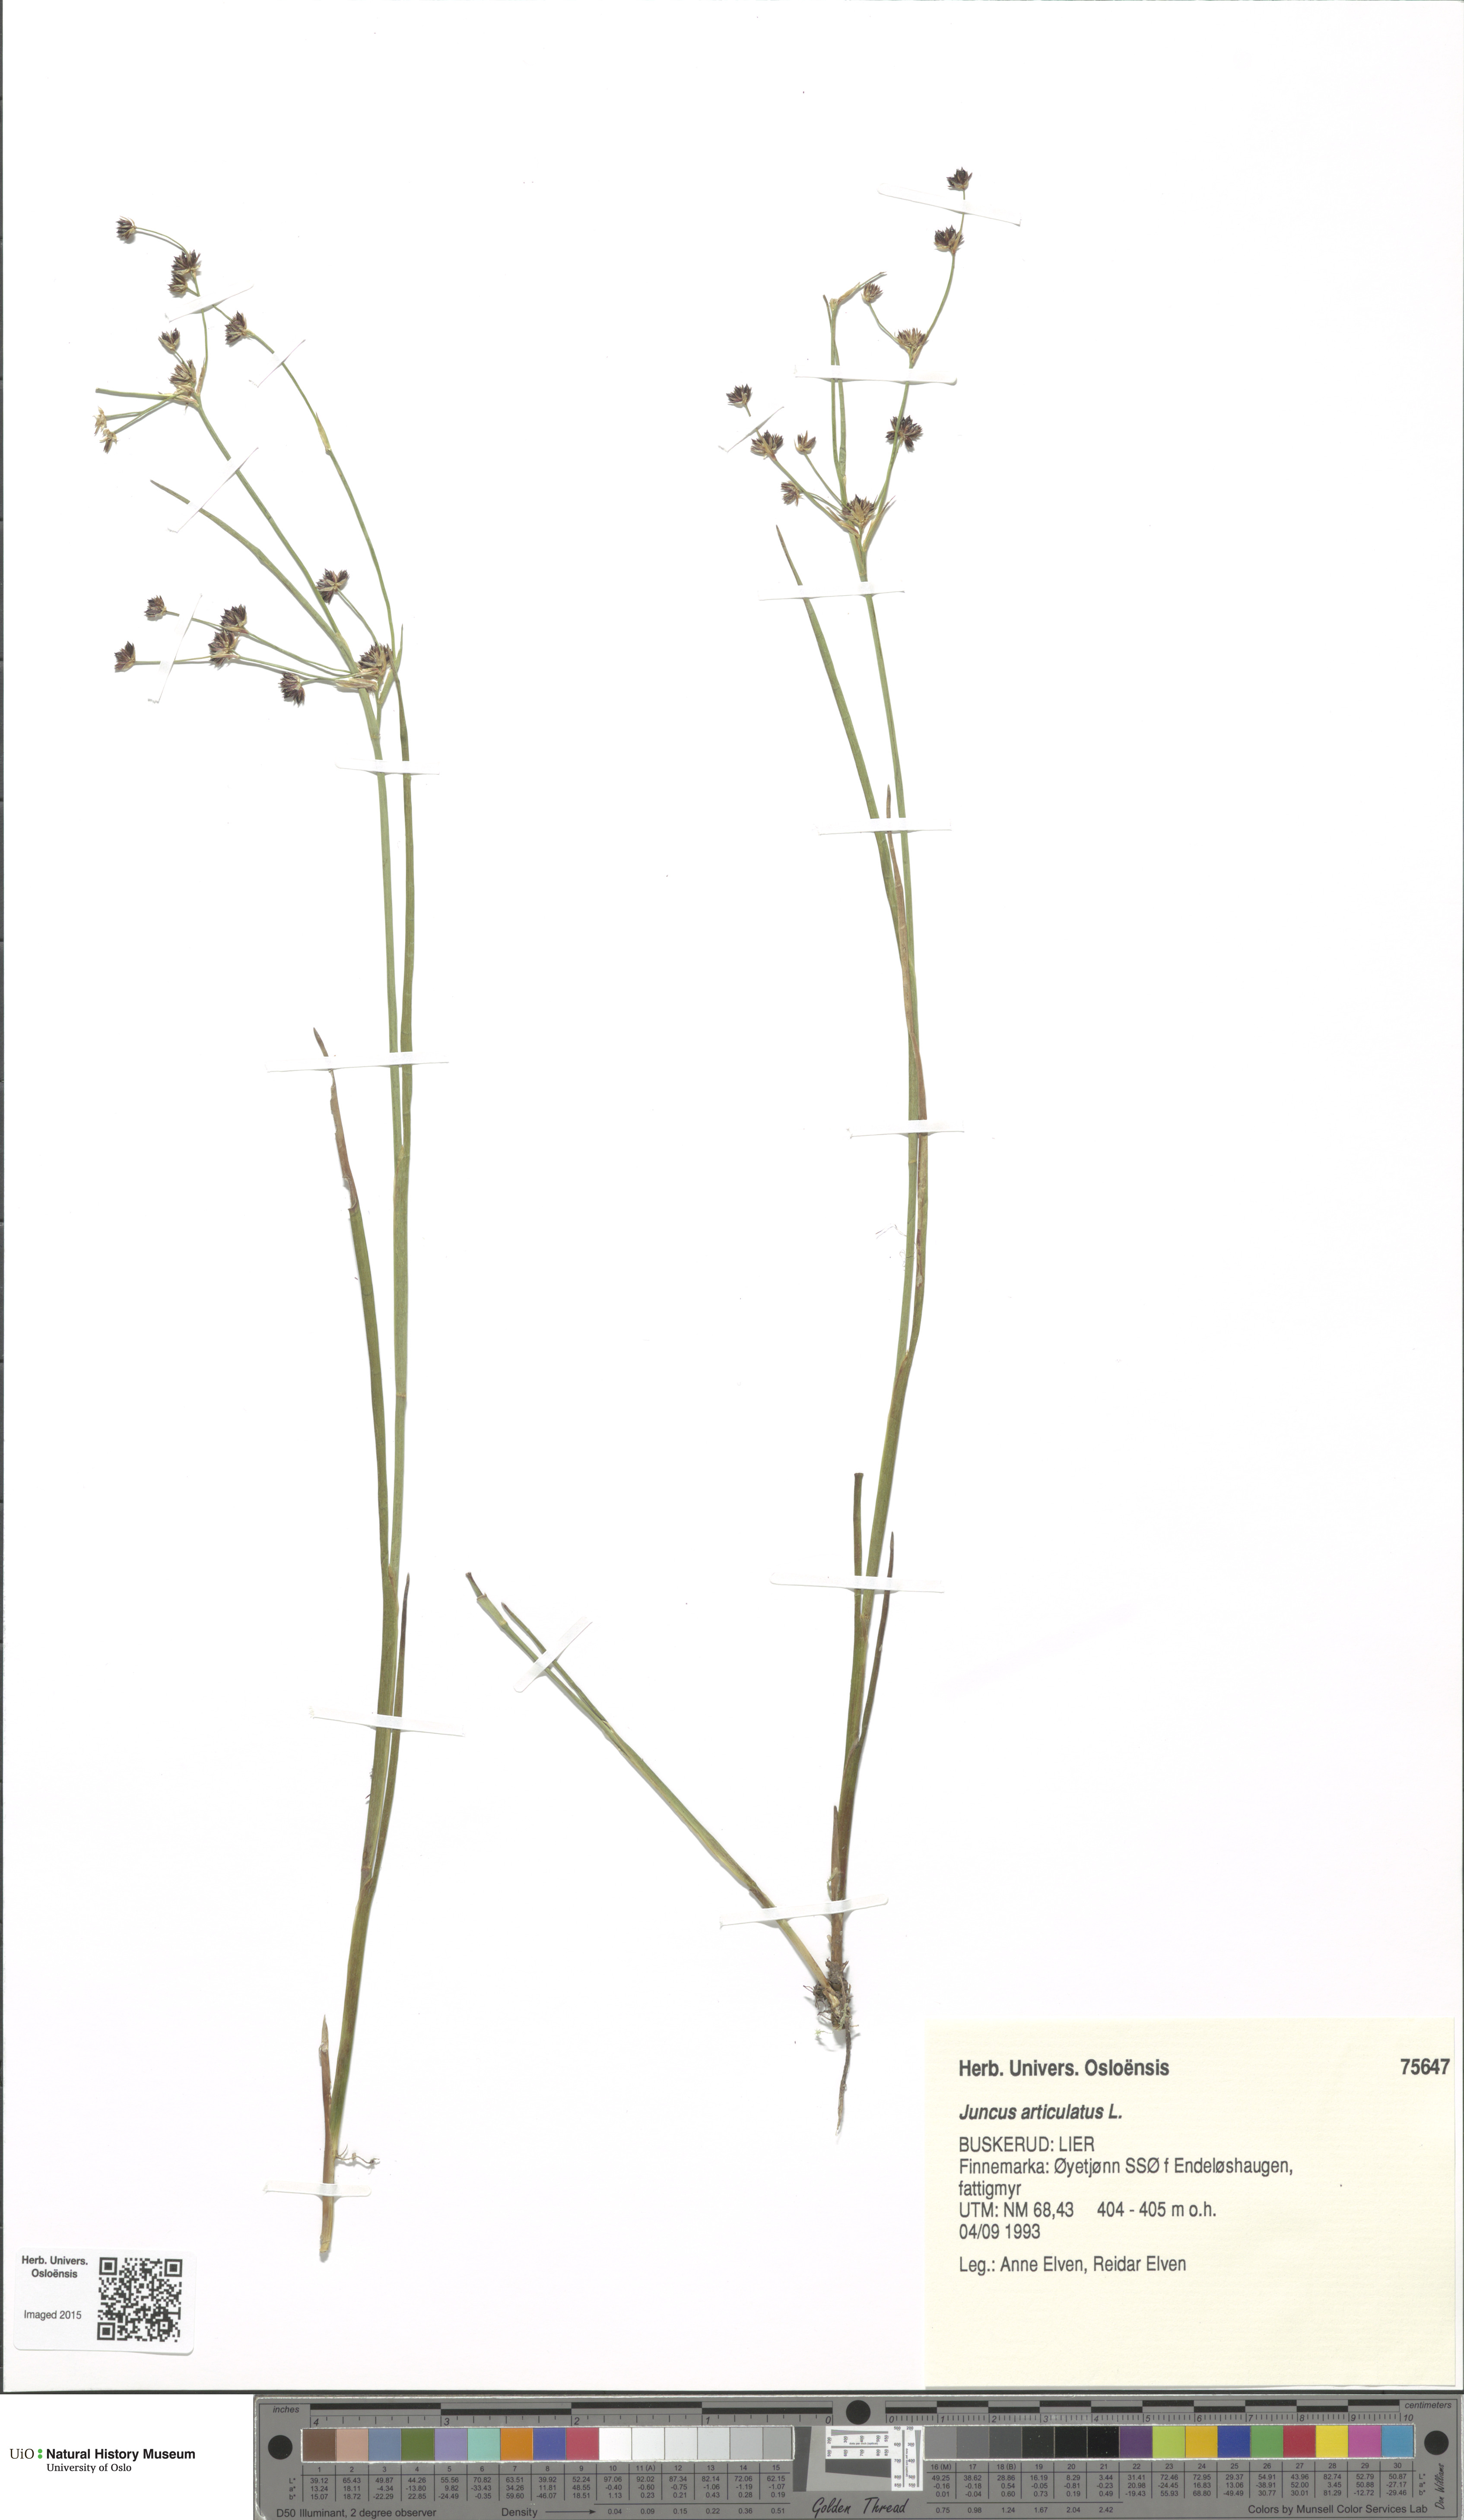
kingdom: Plantae
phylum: Tracheophyta
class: Liliopsida
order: Poales
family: Juncaceae
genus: Juncus
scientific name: Juncus articulatus
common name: Jointed rush
